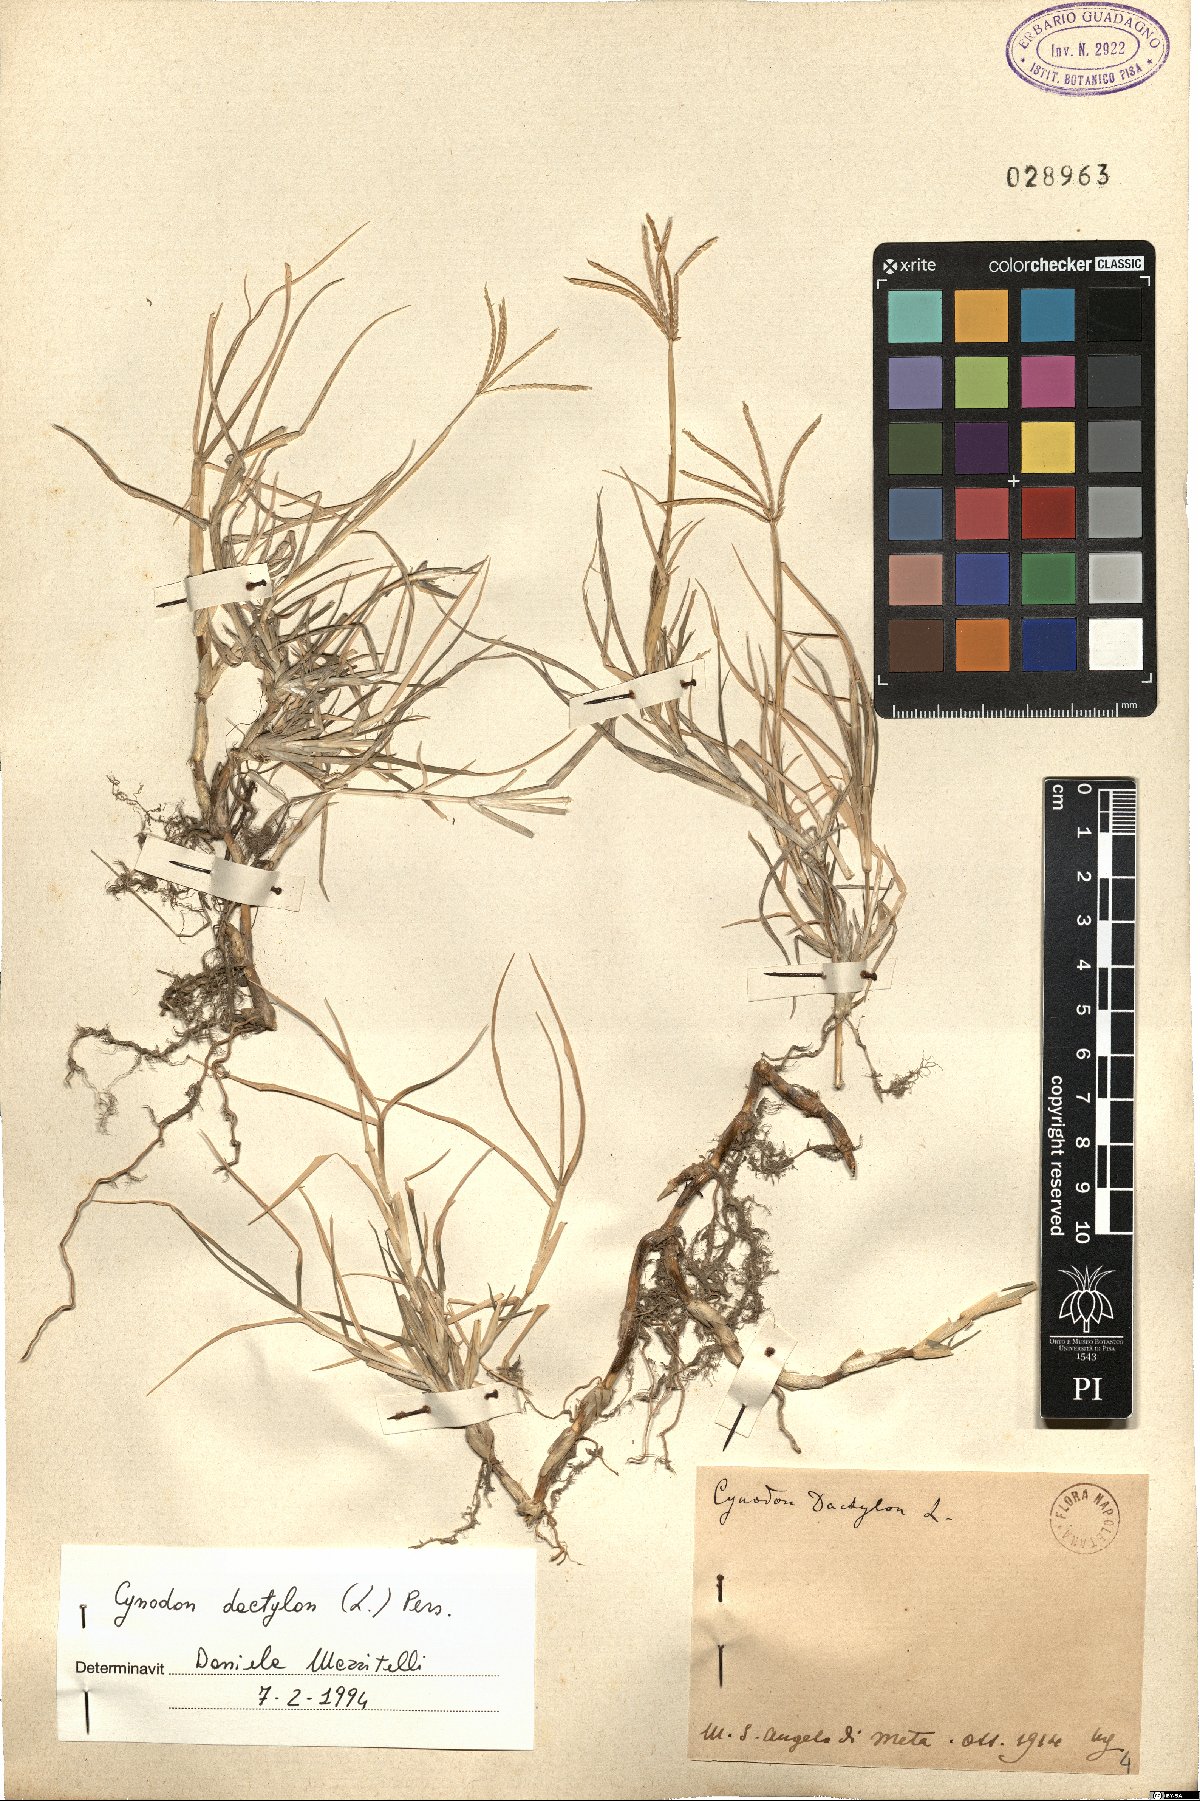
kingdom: Plantae
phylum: Tracheophyta
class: Liliopsida
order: Poales
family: Poaceae
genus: Cynodon
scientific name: Cynodon dactylon
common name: Bermuda grass
